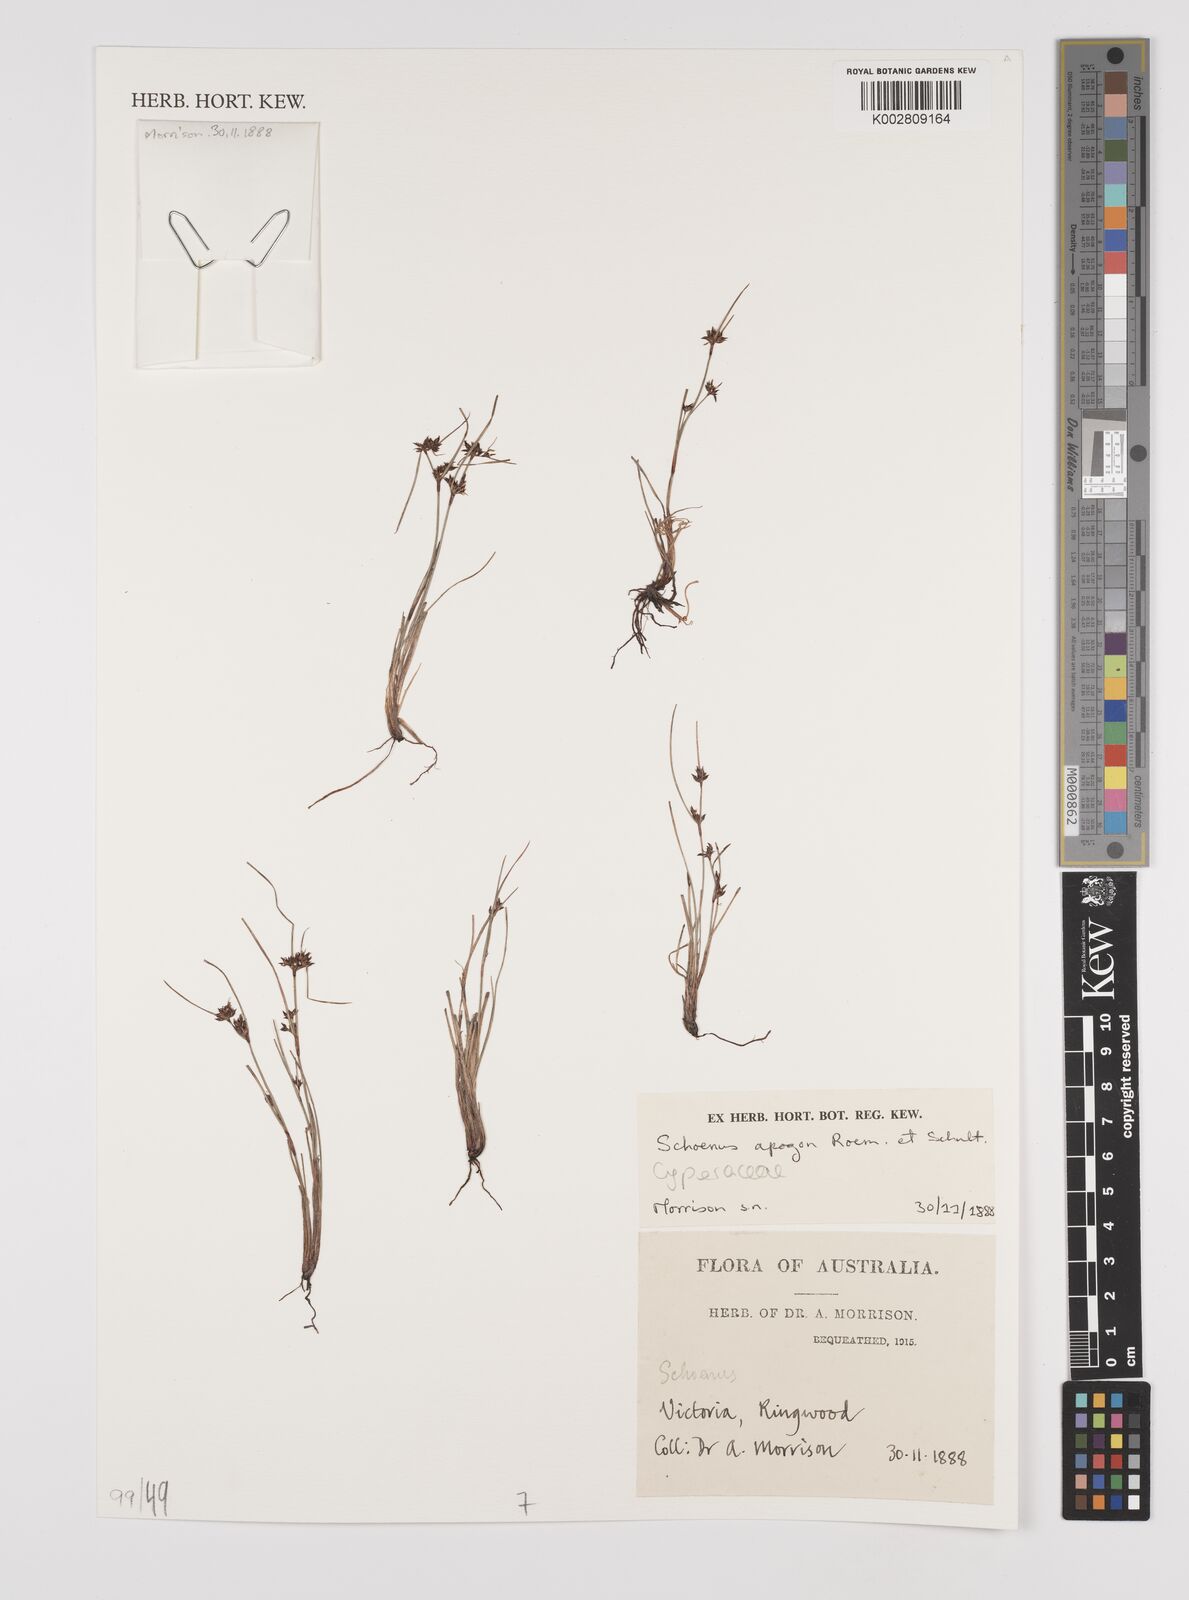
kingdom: Plantae
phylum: Tracheophyta
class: Liliopsida
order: Poales
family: Cyperaceae
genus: Schoenus
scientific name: Schoenus apogon
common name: Smooth bogrush
